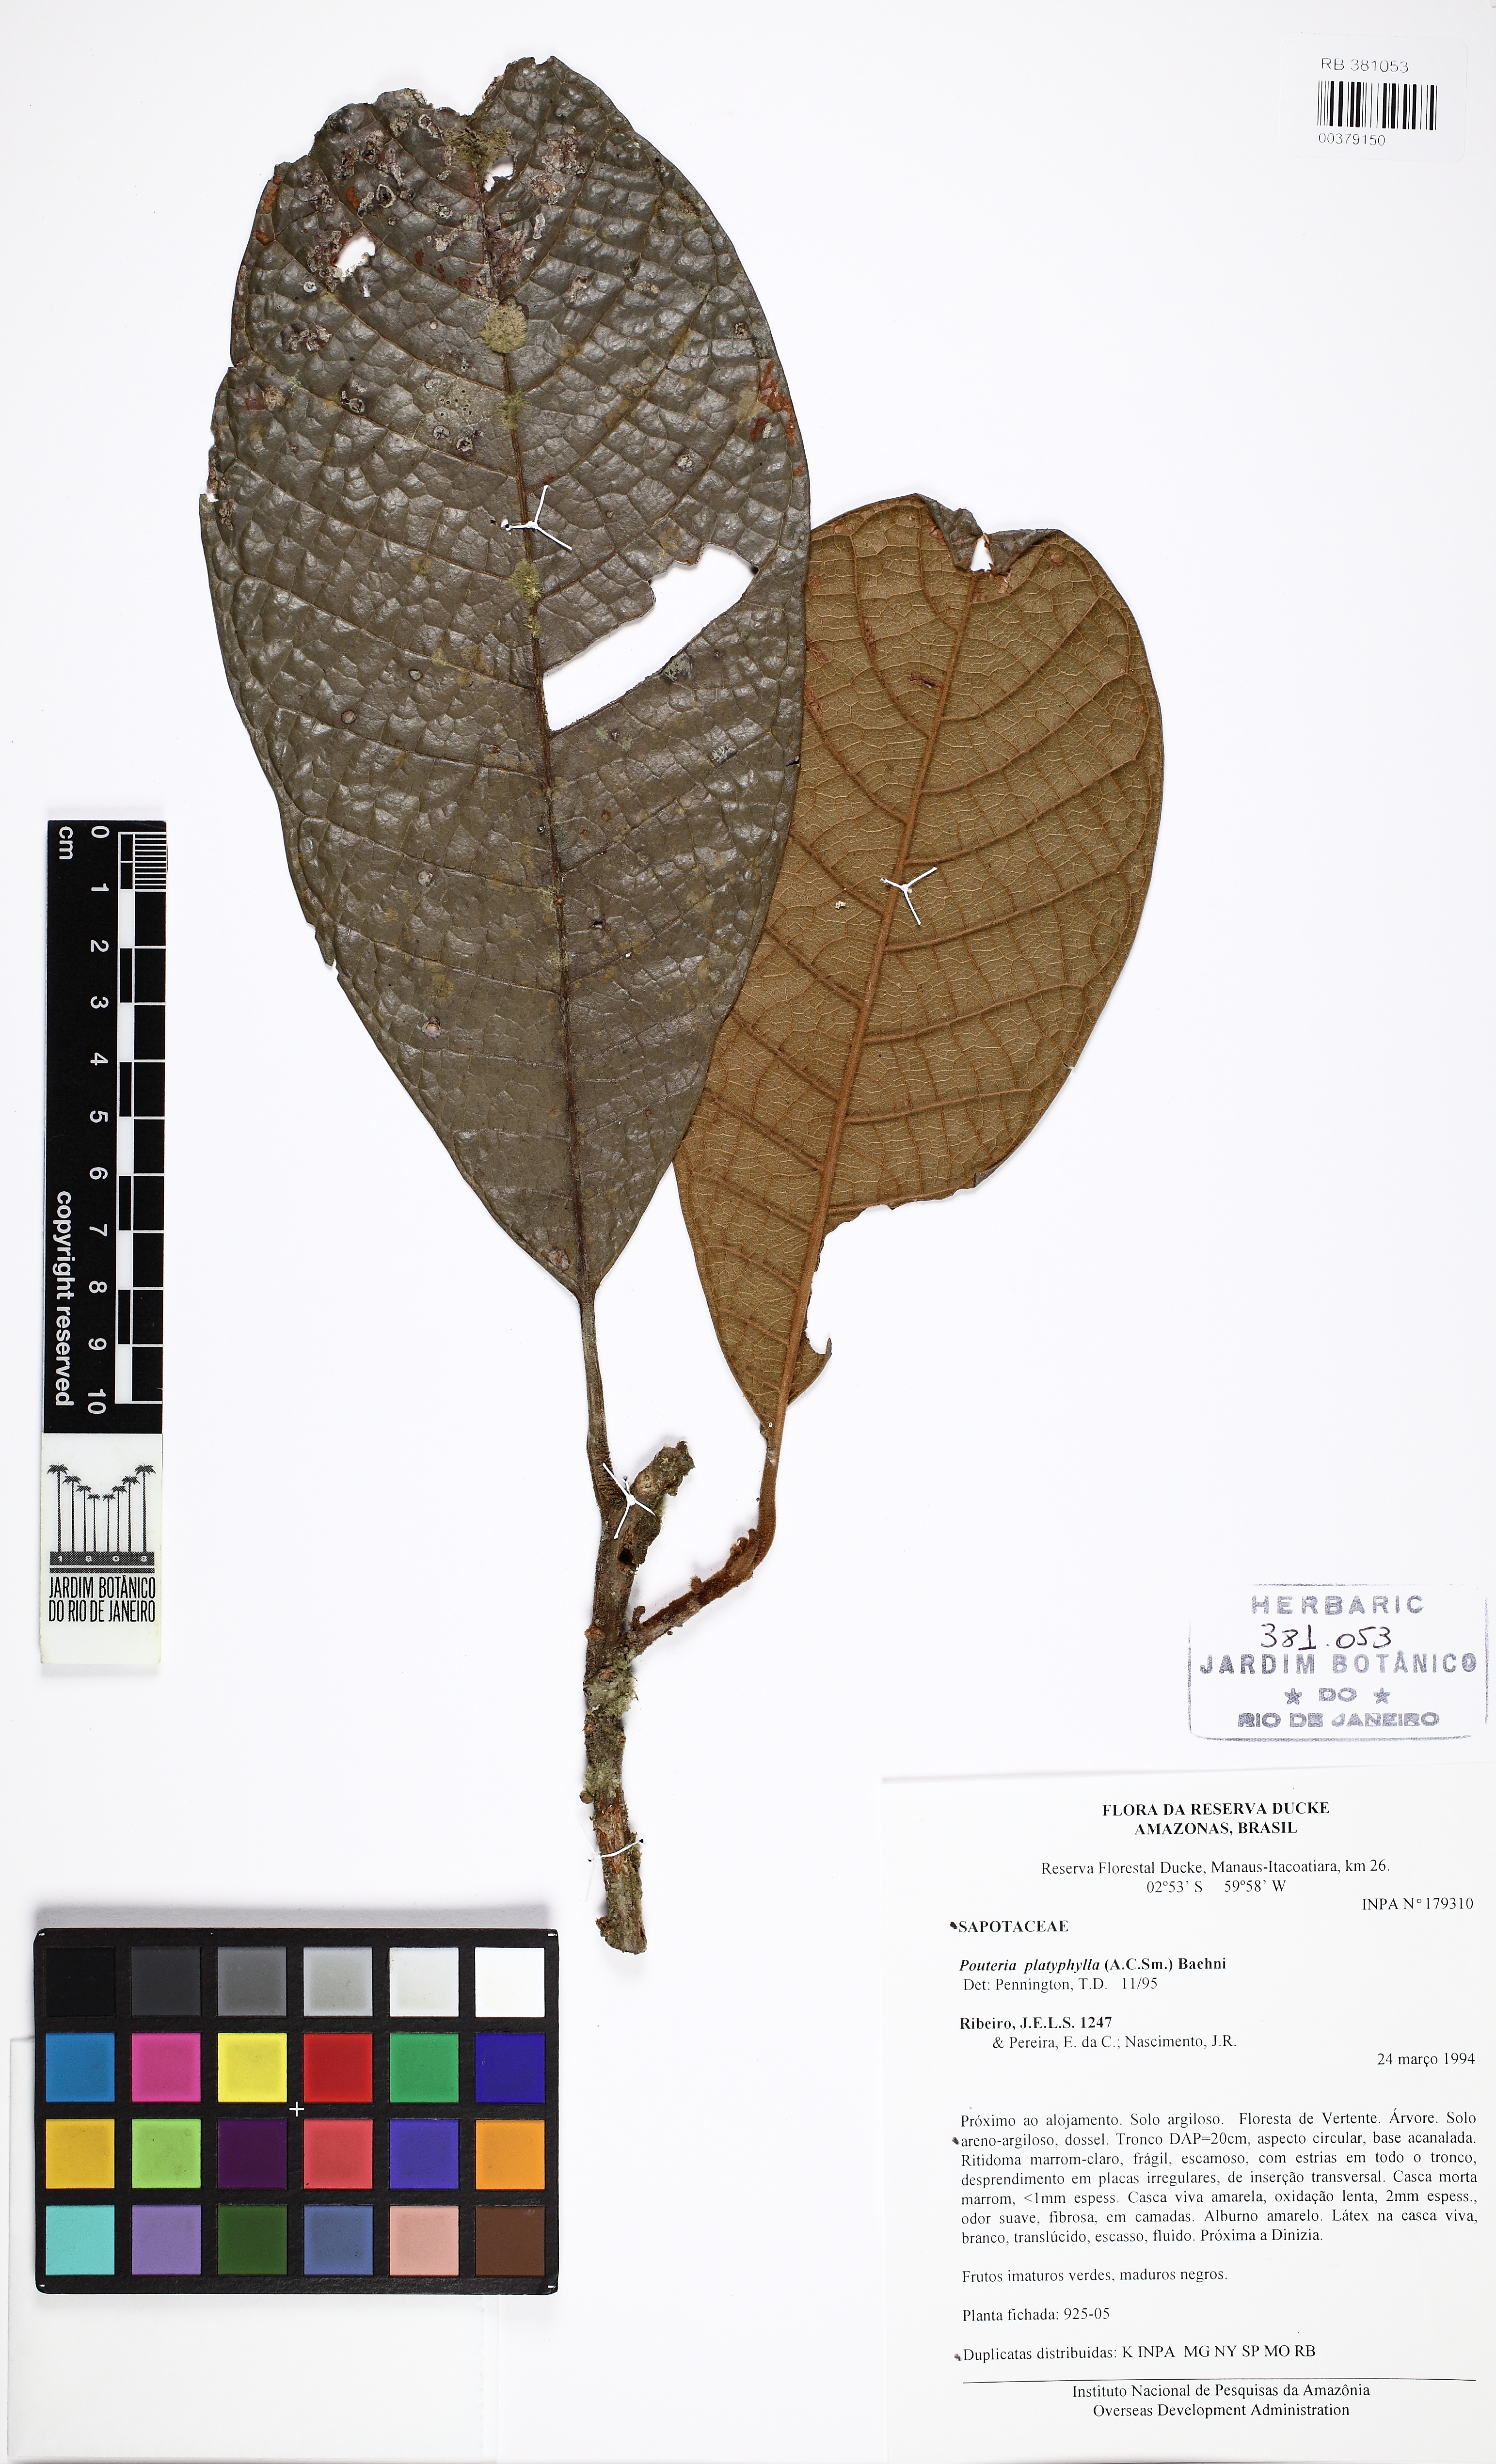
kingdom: Plantae
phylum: Tracheophyta
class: Magnoliopsida
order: Ericales
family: Sapotaceae
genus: Pouteria
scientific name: Pouteria platyphylla
